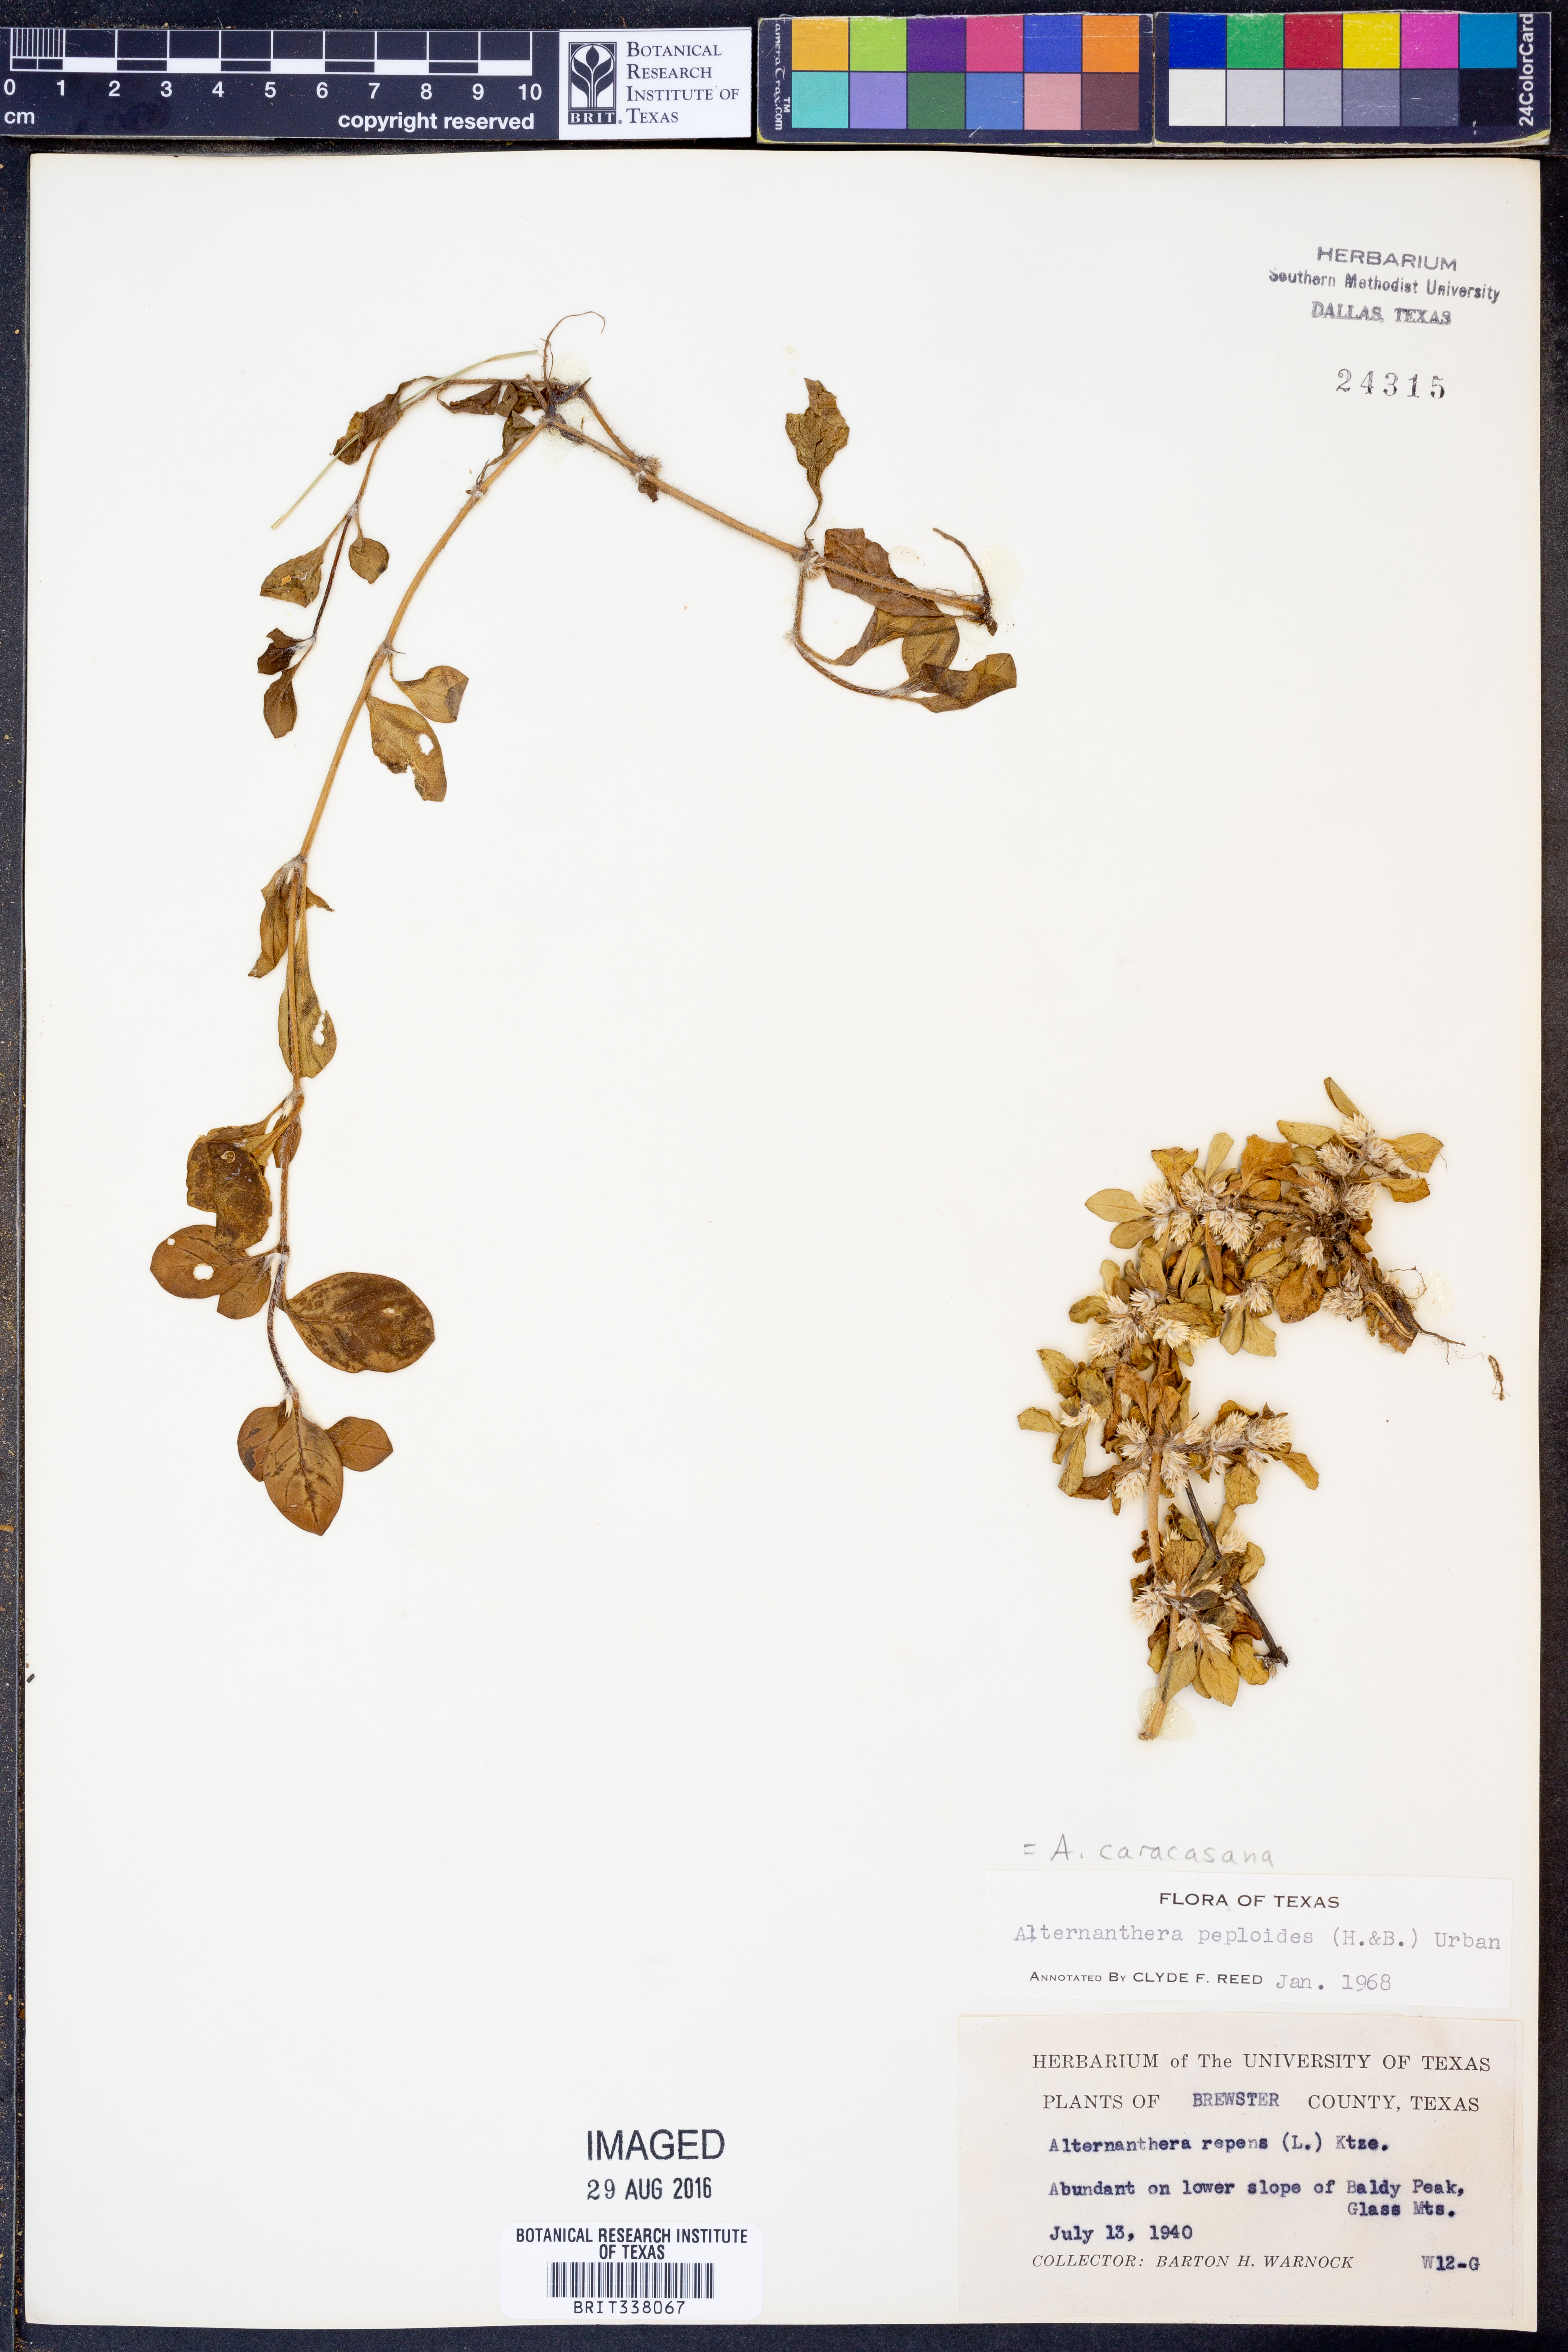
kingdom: Plantae
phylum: Tracheophyta
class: Magnoliopsida
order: Caryophyllales
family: Amaranthaceae
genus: Alternanthera
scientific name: Alternanthera caracasana
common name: Washerwoman
